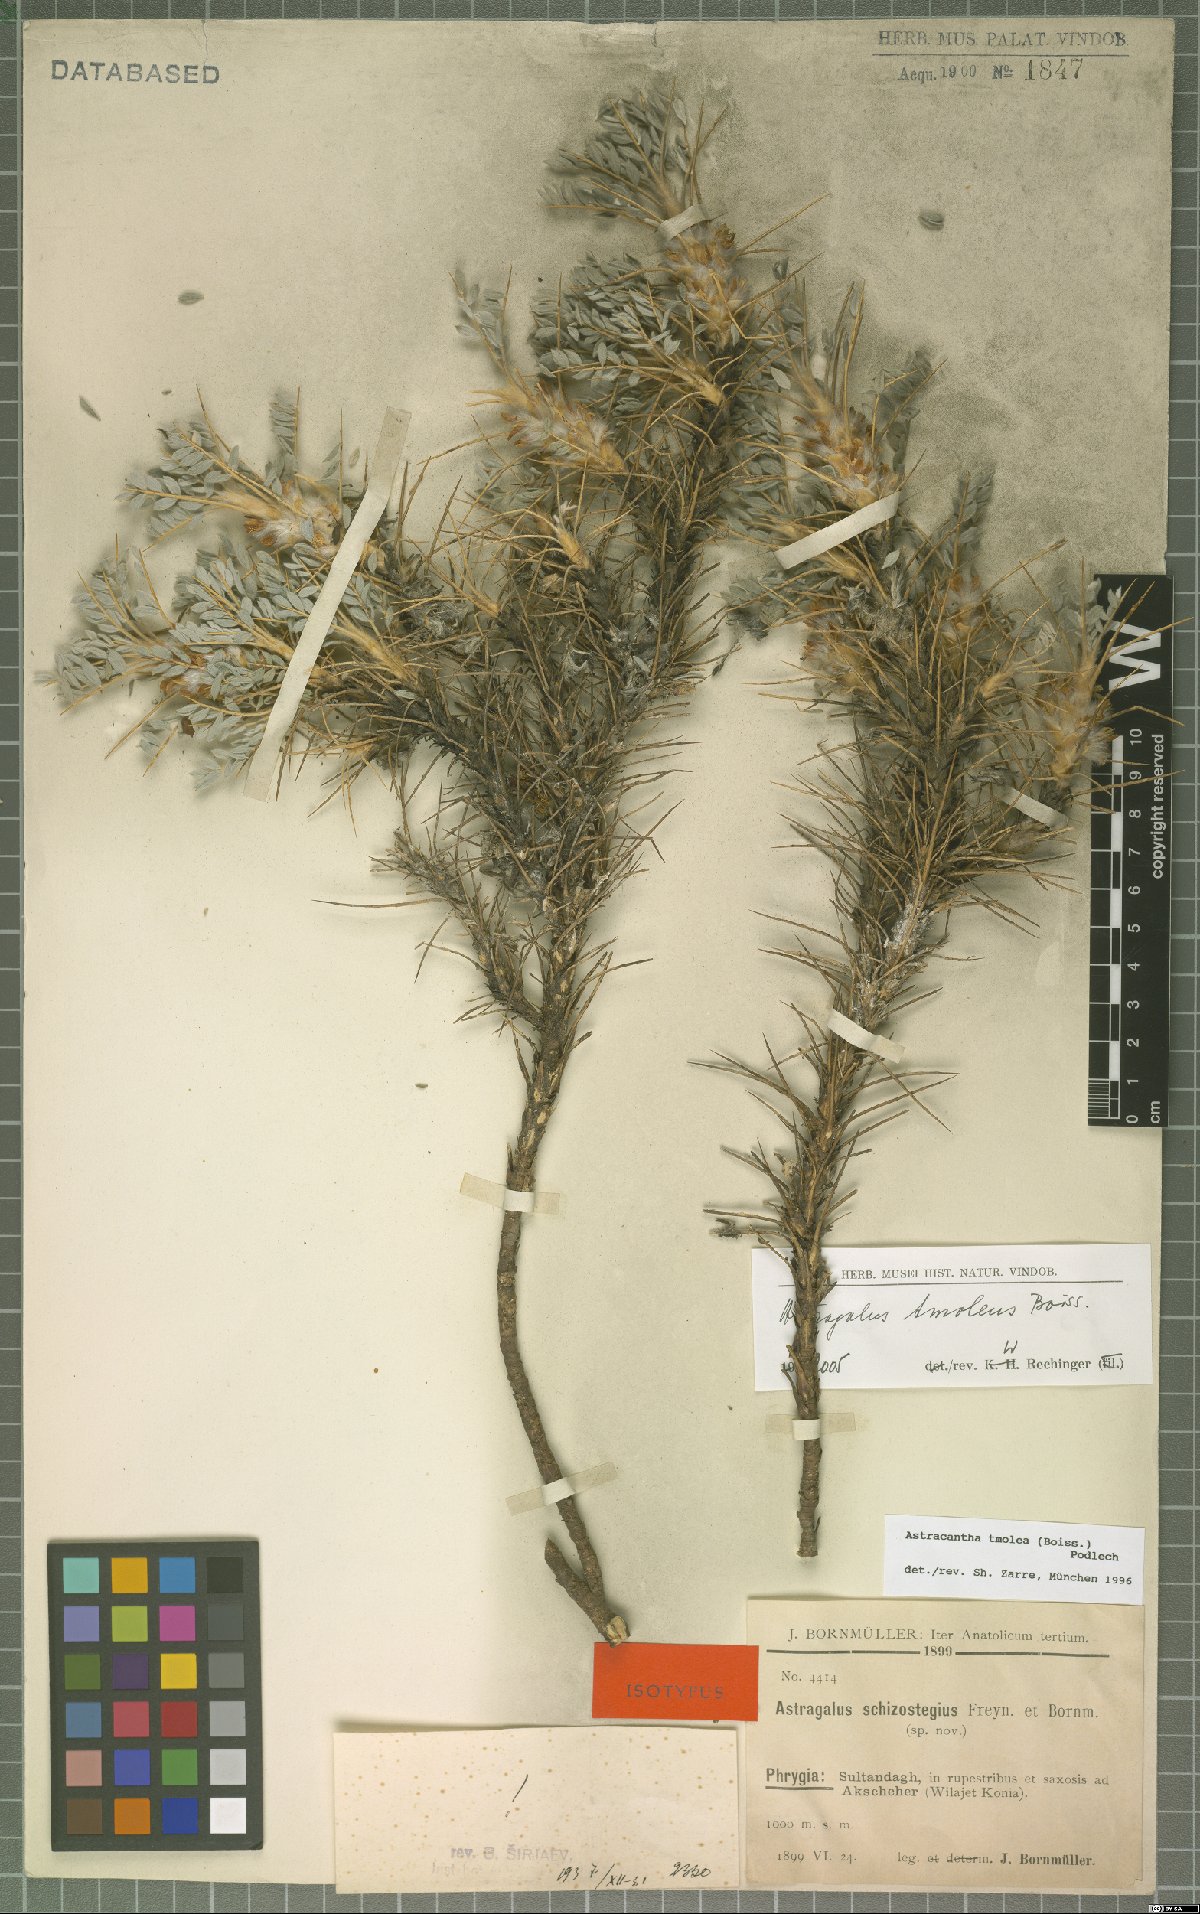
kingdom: Plantae
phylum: Tracheophyta
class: Magnoliopsida
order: Fabales
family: Fabaceae
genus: Astragalus
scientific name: Astragalus tmoleus
